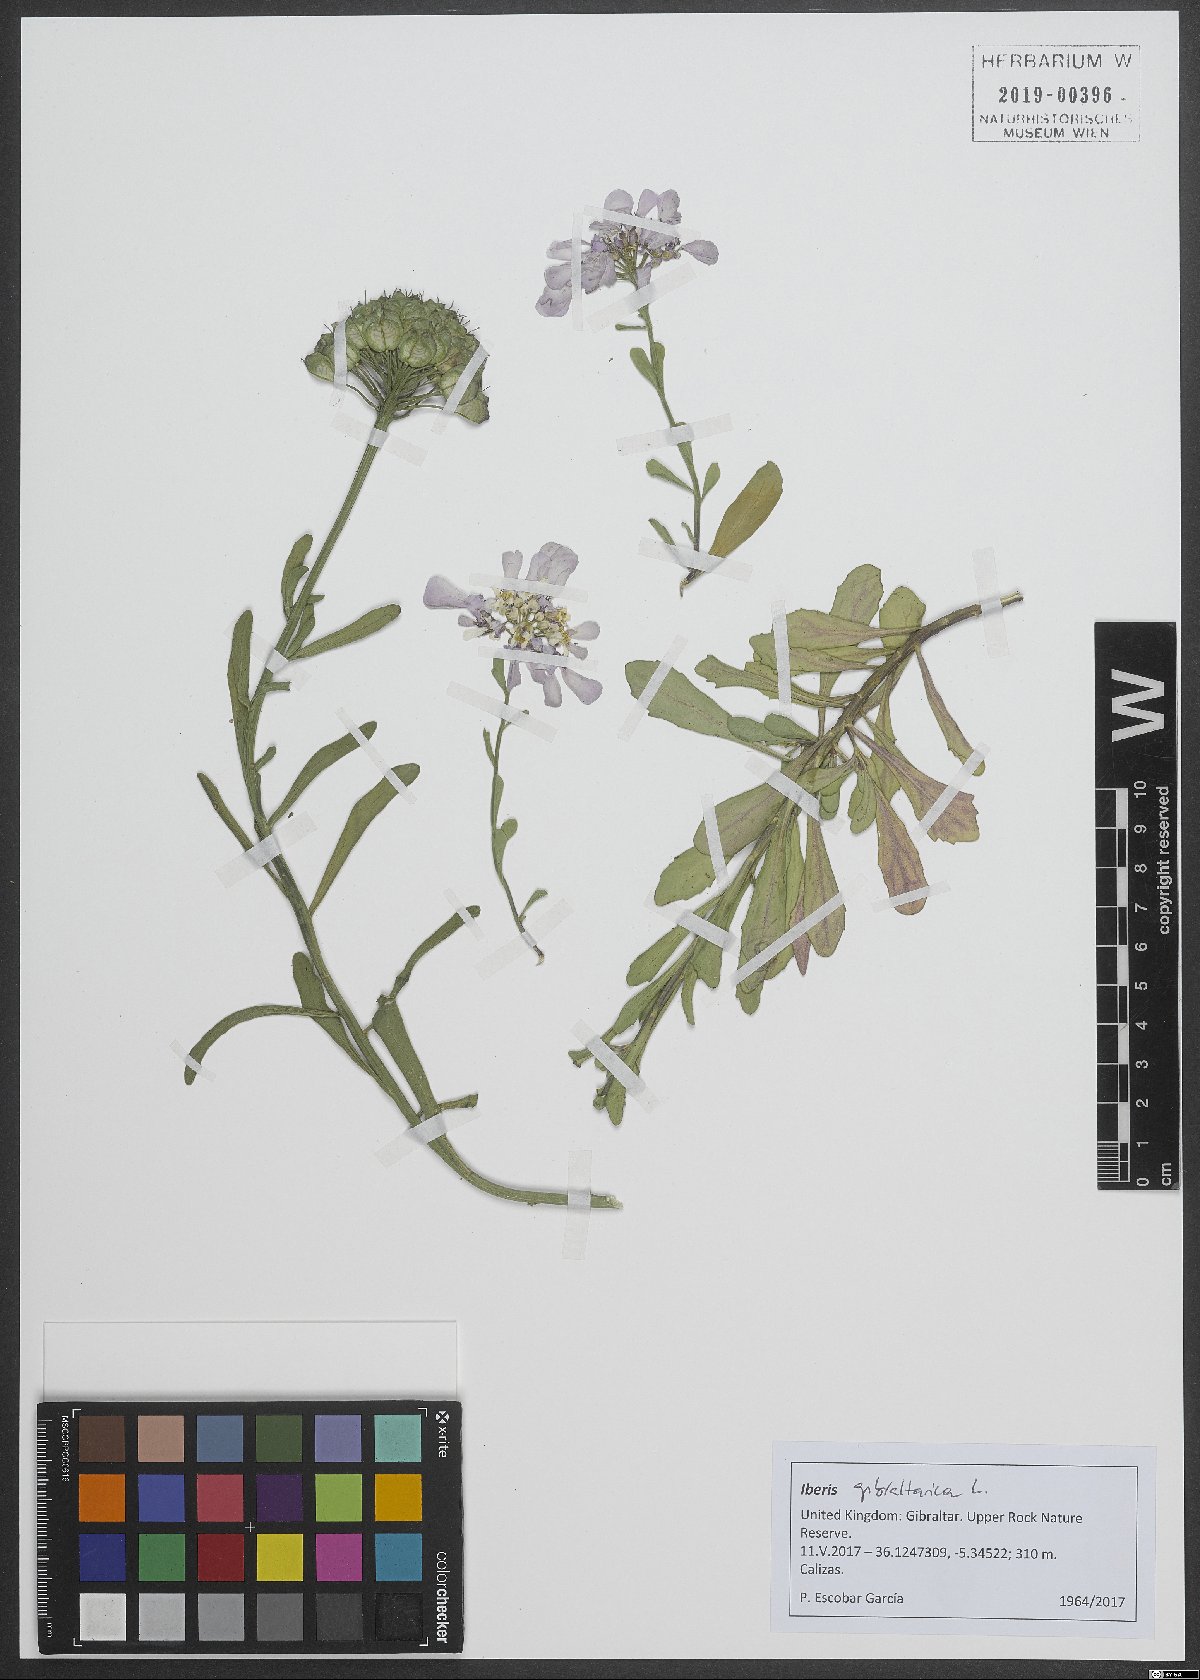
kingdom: Plantae
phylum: Tracheophyta
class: Magnoliopsida
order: Brassicales
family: Brassicaceae
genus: Iberis
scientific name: Iberis gibraltarica
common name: Gibraltar candytuft
